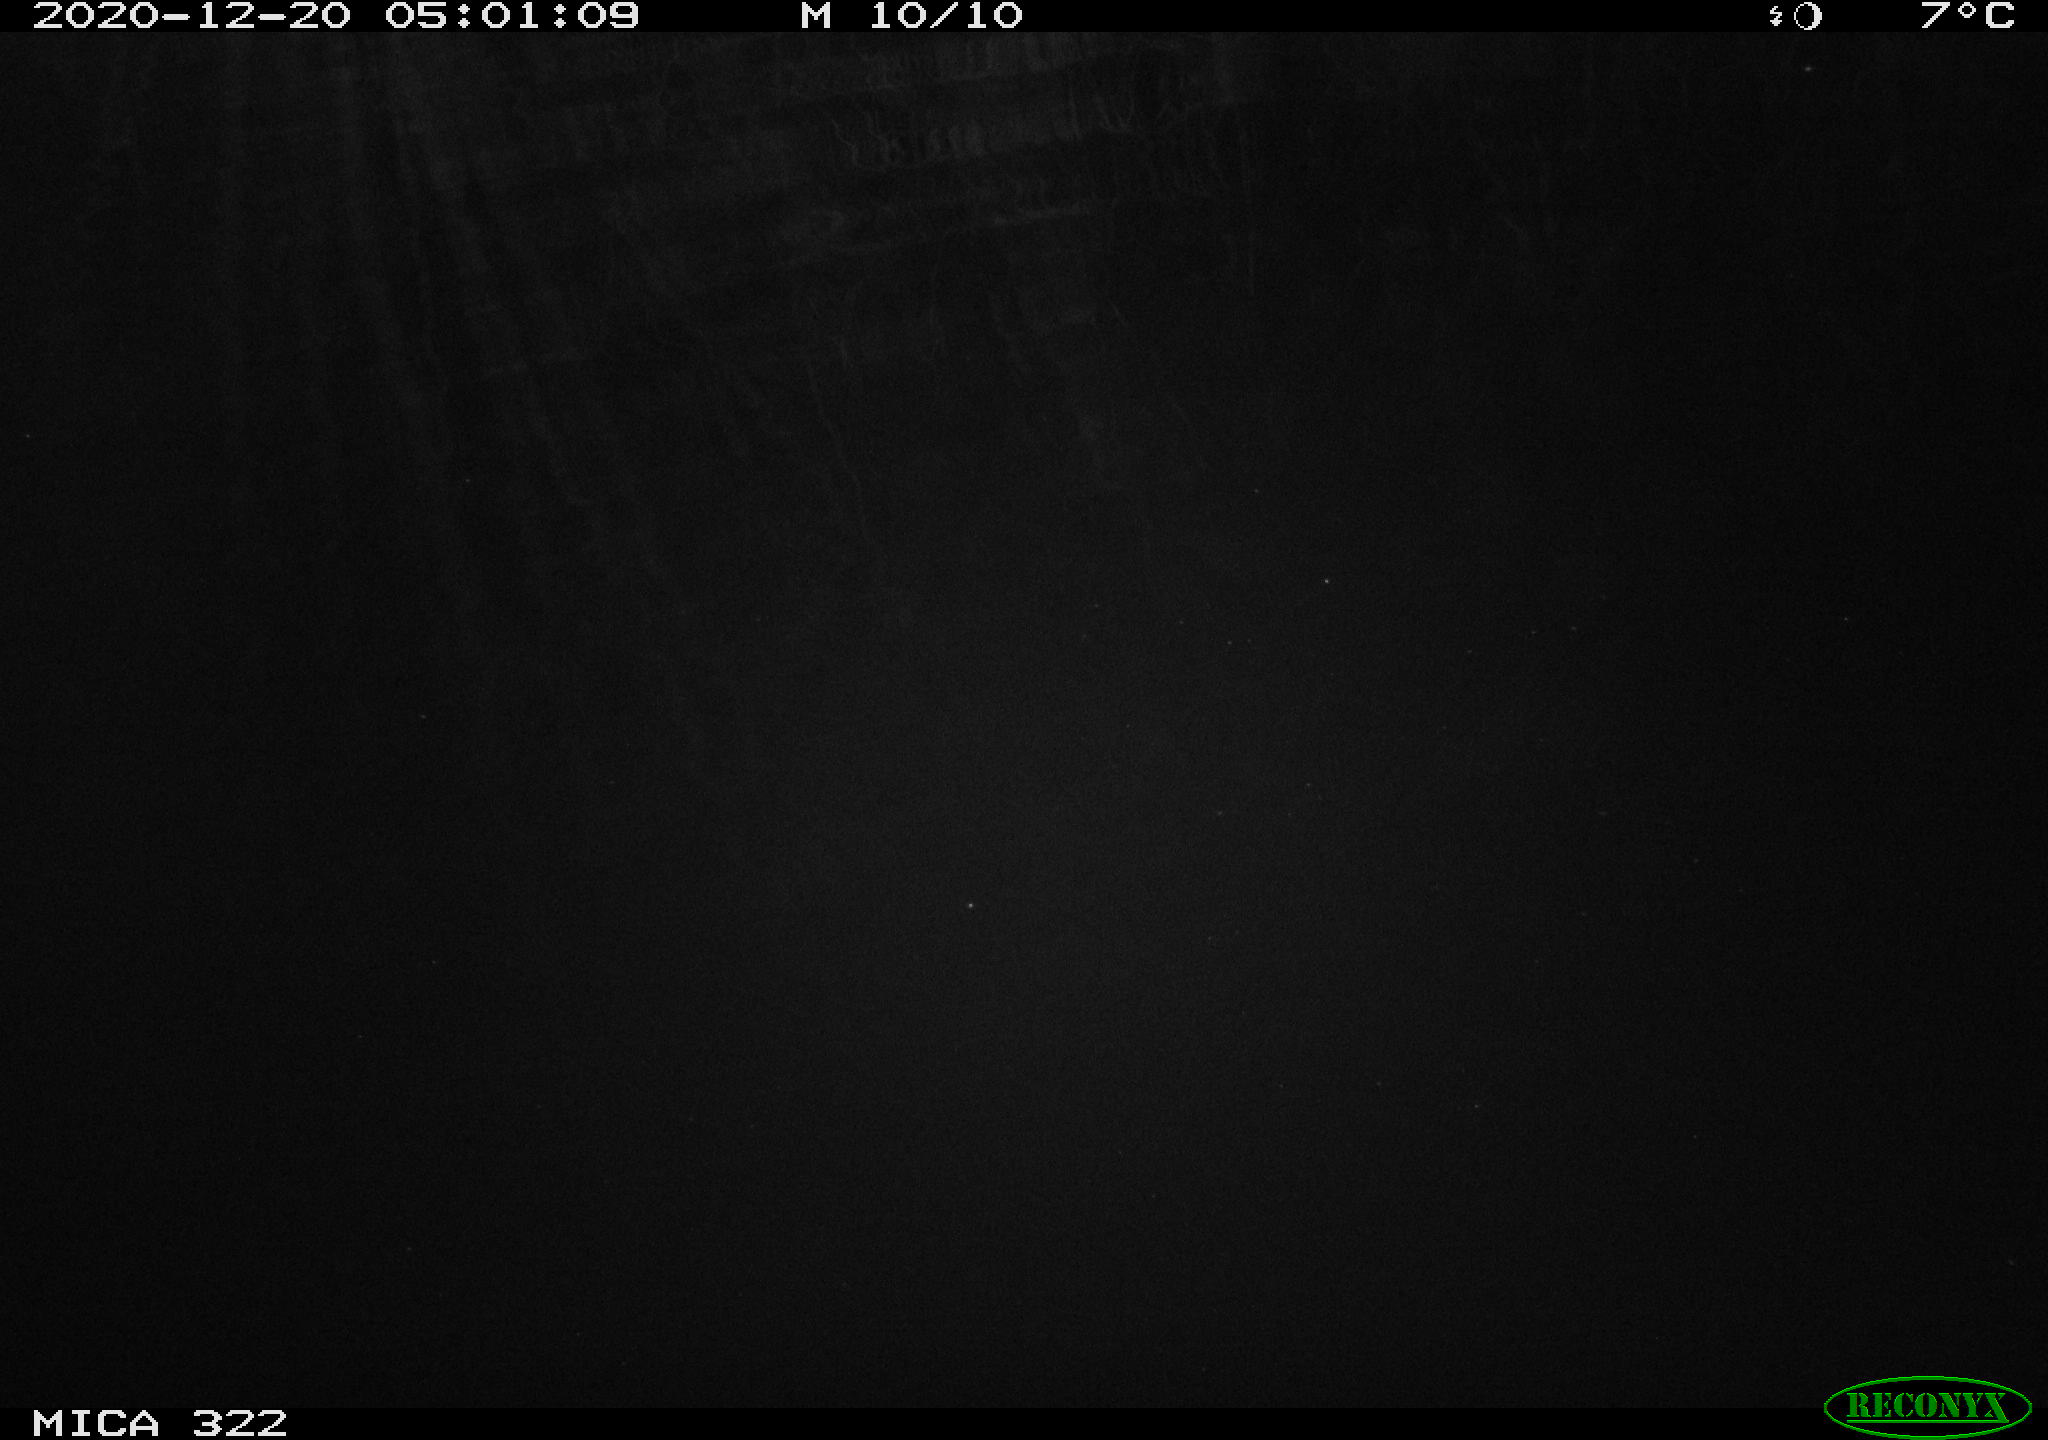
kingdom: Animalia
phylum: Chordata
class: Mammalia
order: Rodentia
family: Muridae
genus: Rattus
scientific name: Rattus norvegicus
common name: Brown rat
